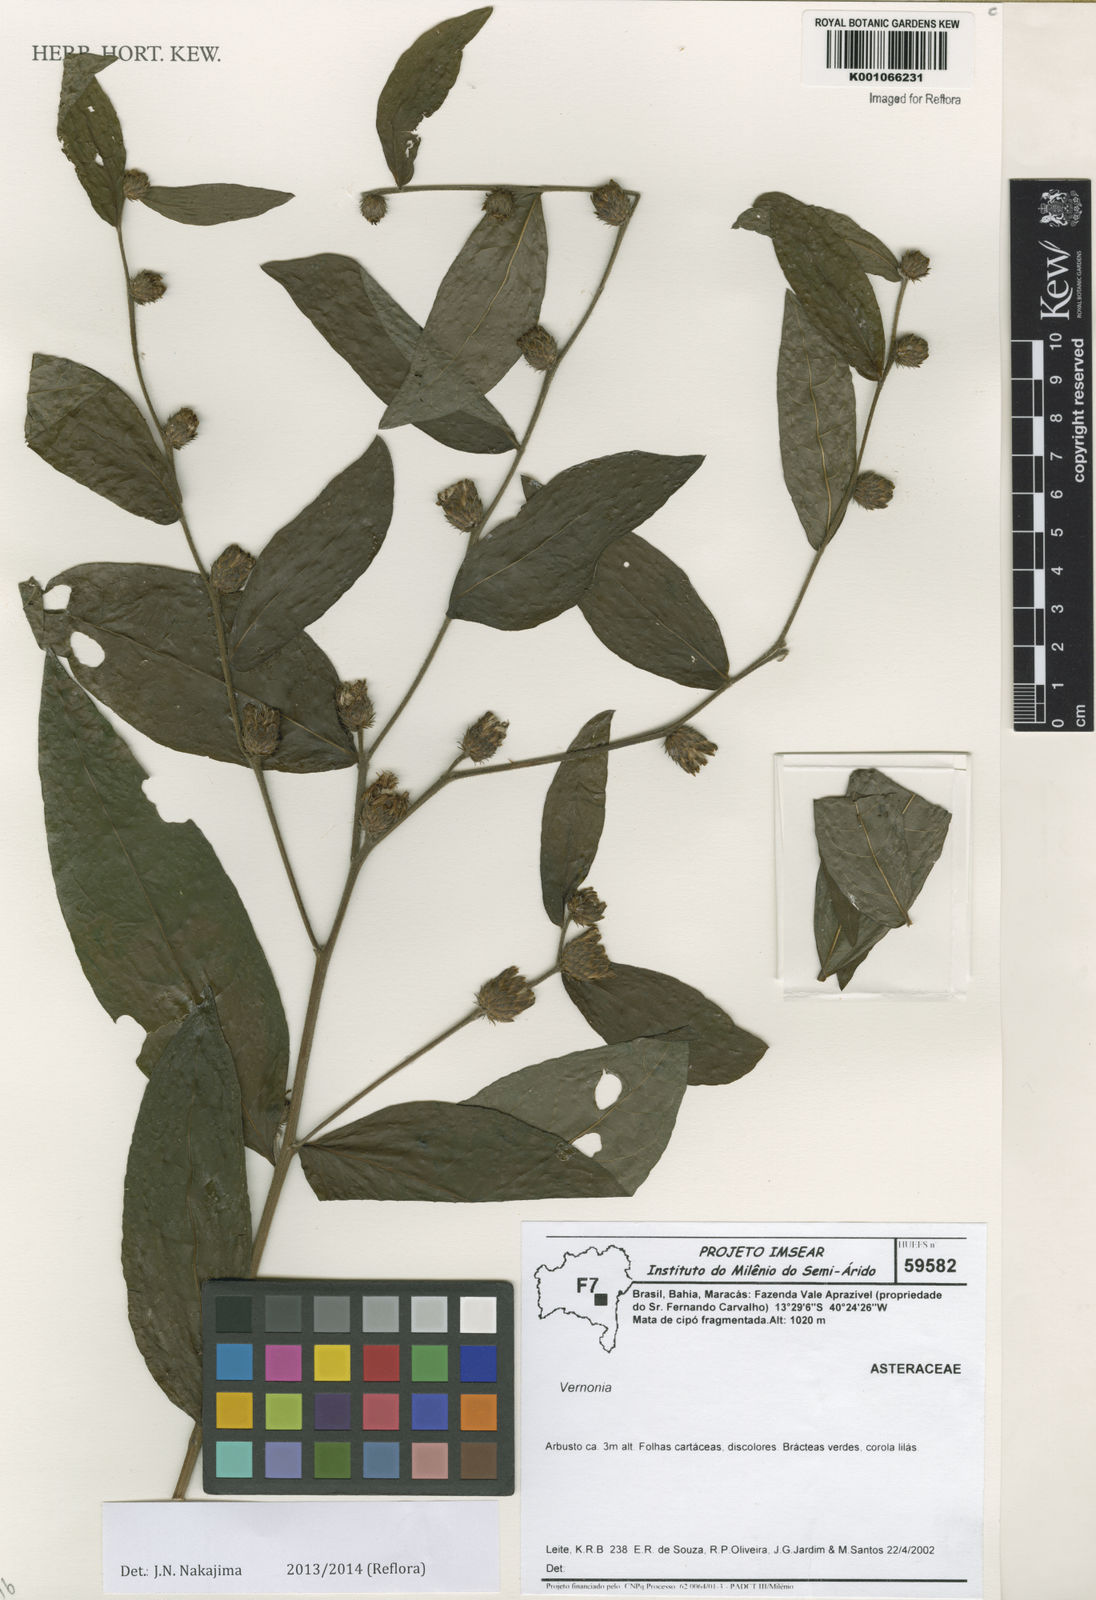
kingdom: Plantae
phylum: Tracheophyta
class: Magnoliopsida
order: Asterales
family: Asteraceae
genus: Lessingianthus
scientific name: Lessingianthus morii
